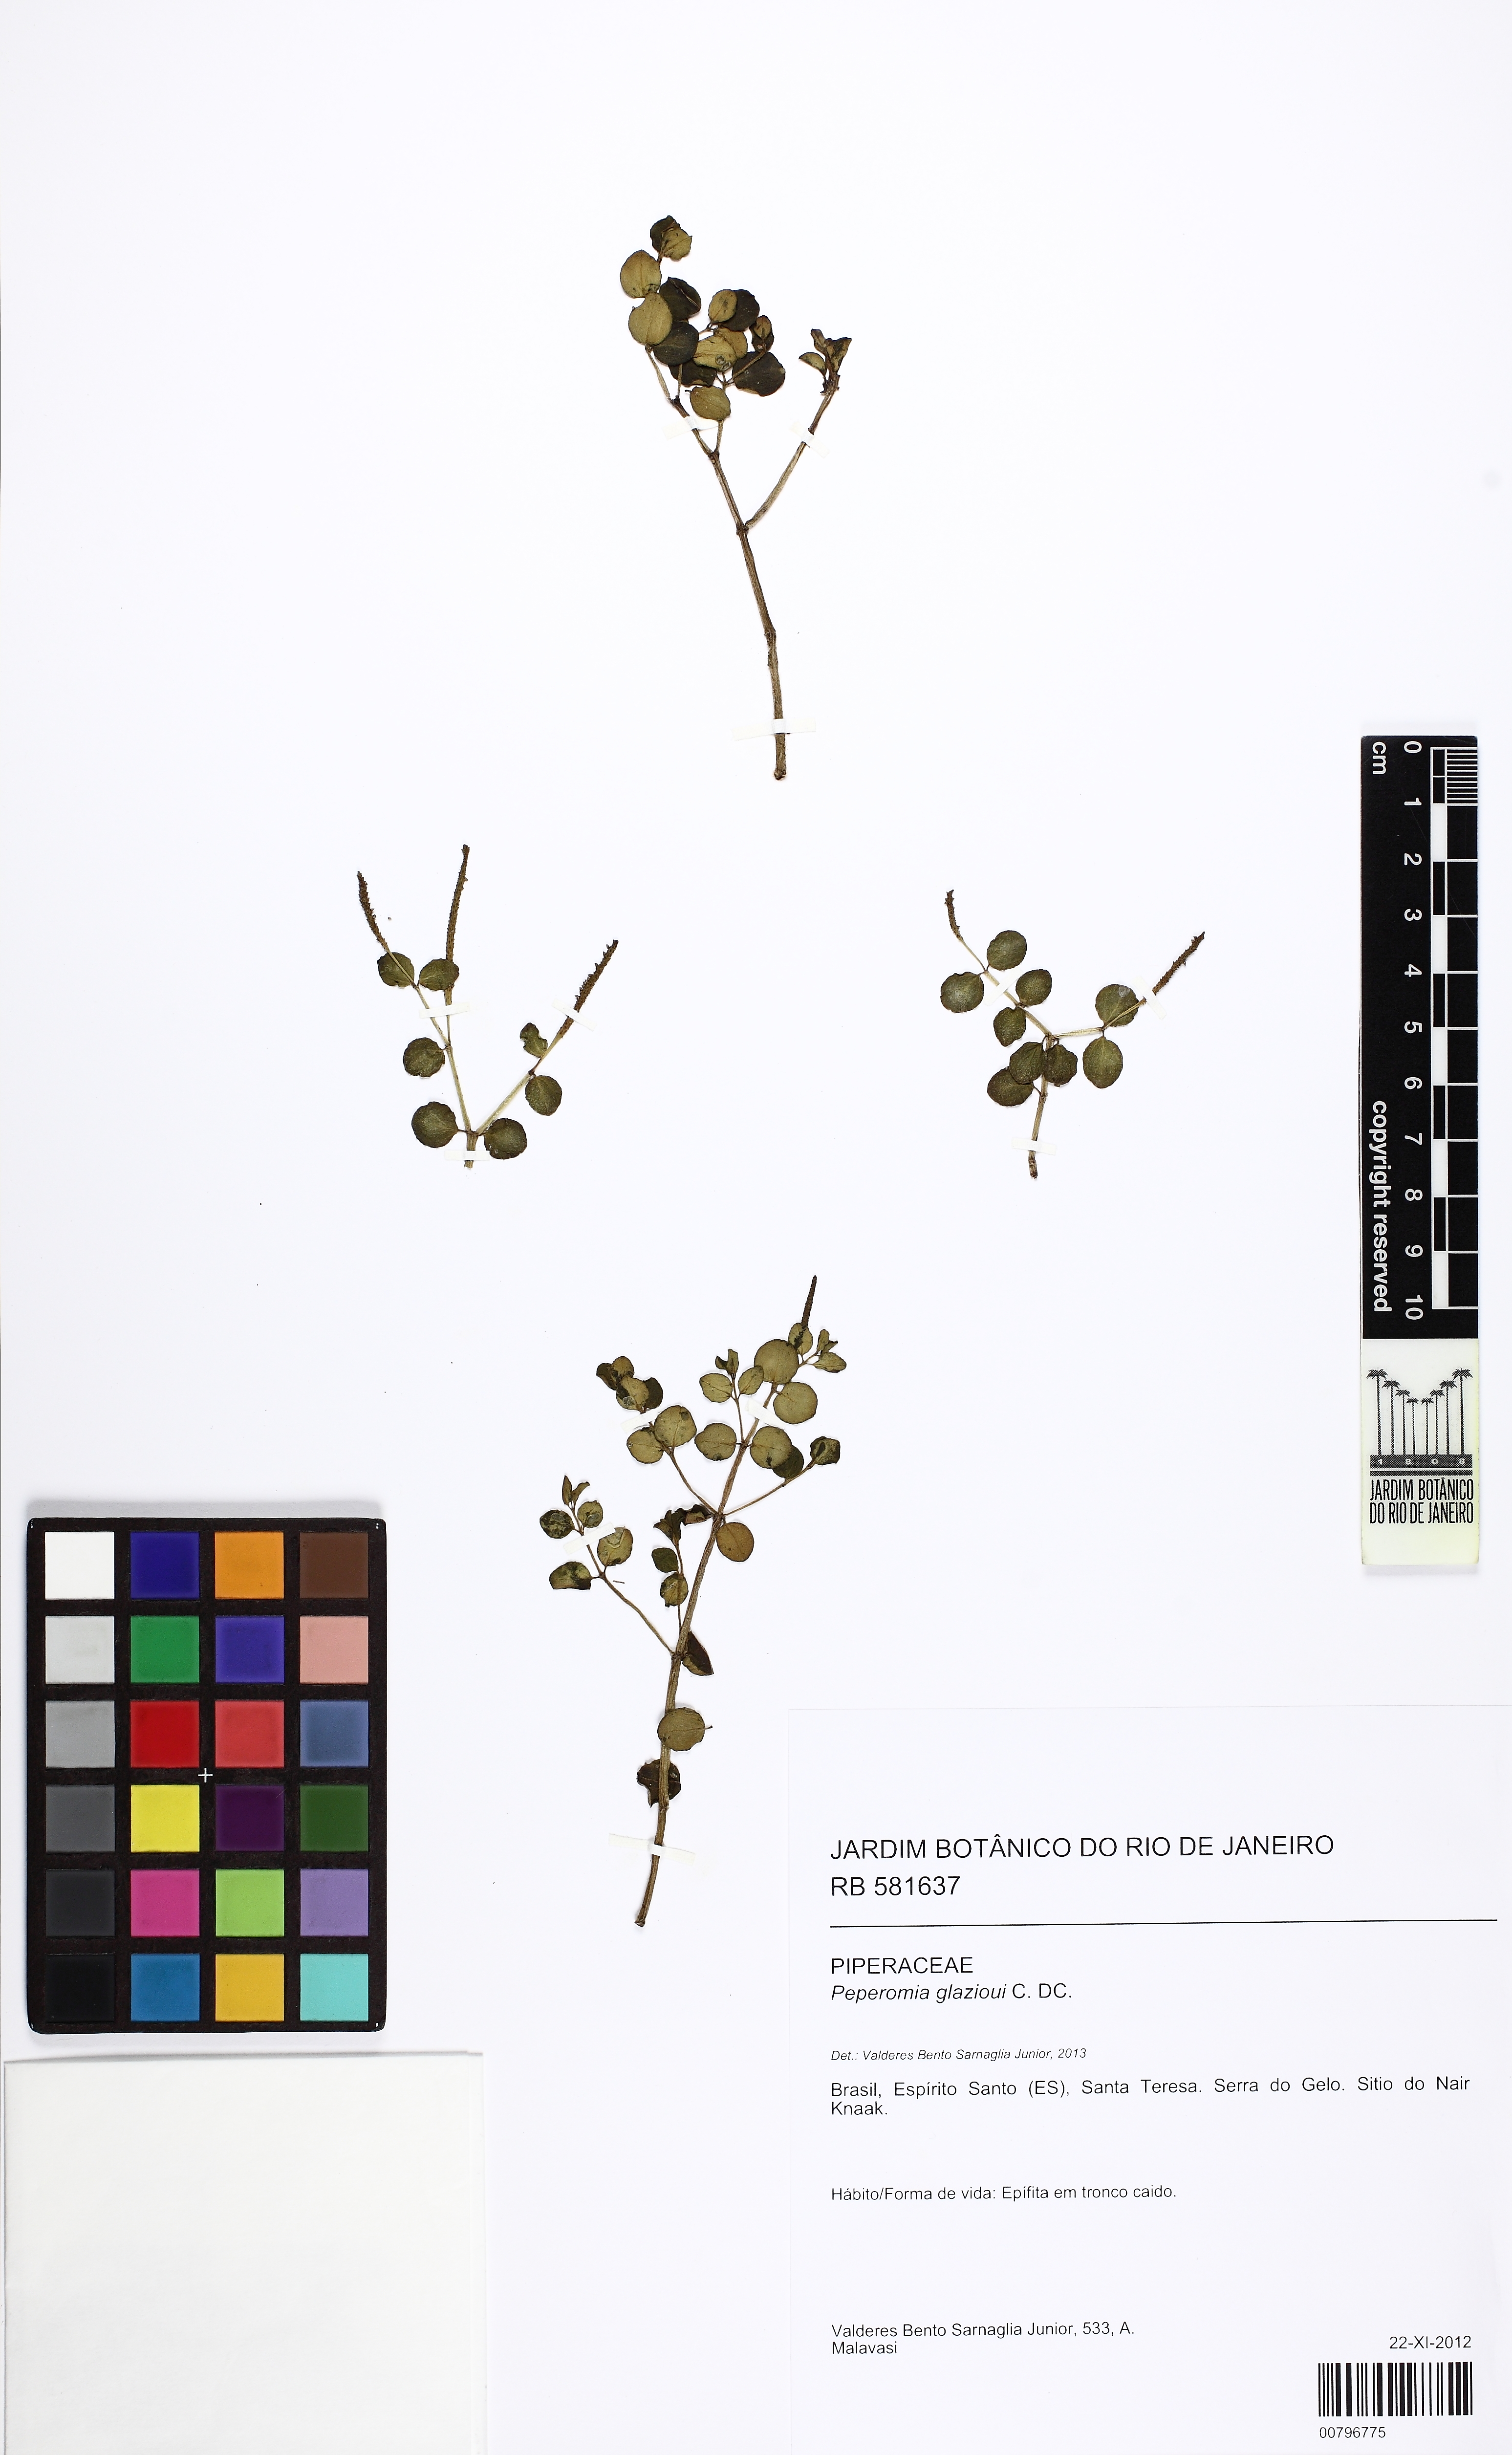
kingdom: Plantae
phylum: Tracheophyta
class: Magnoliopsida
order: Piperales
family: Piperaceae
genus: Peperomia
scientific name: Peperomia glazioui
